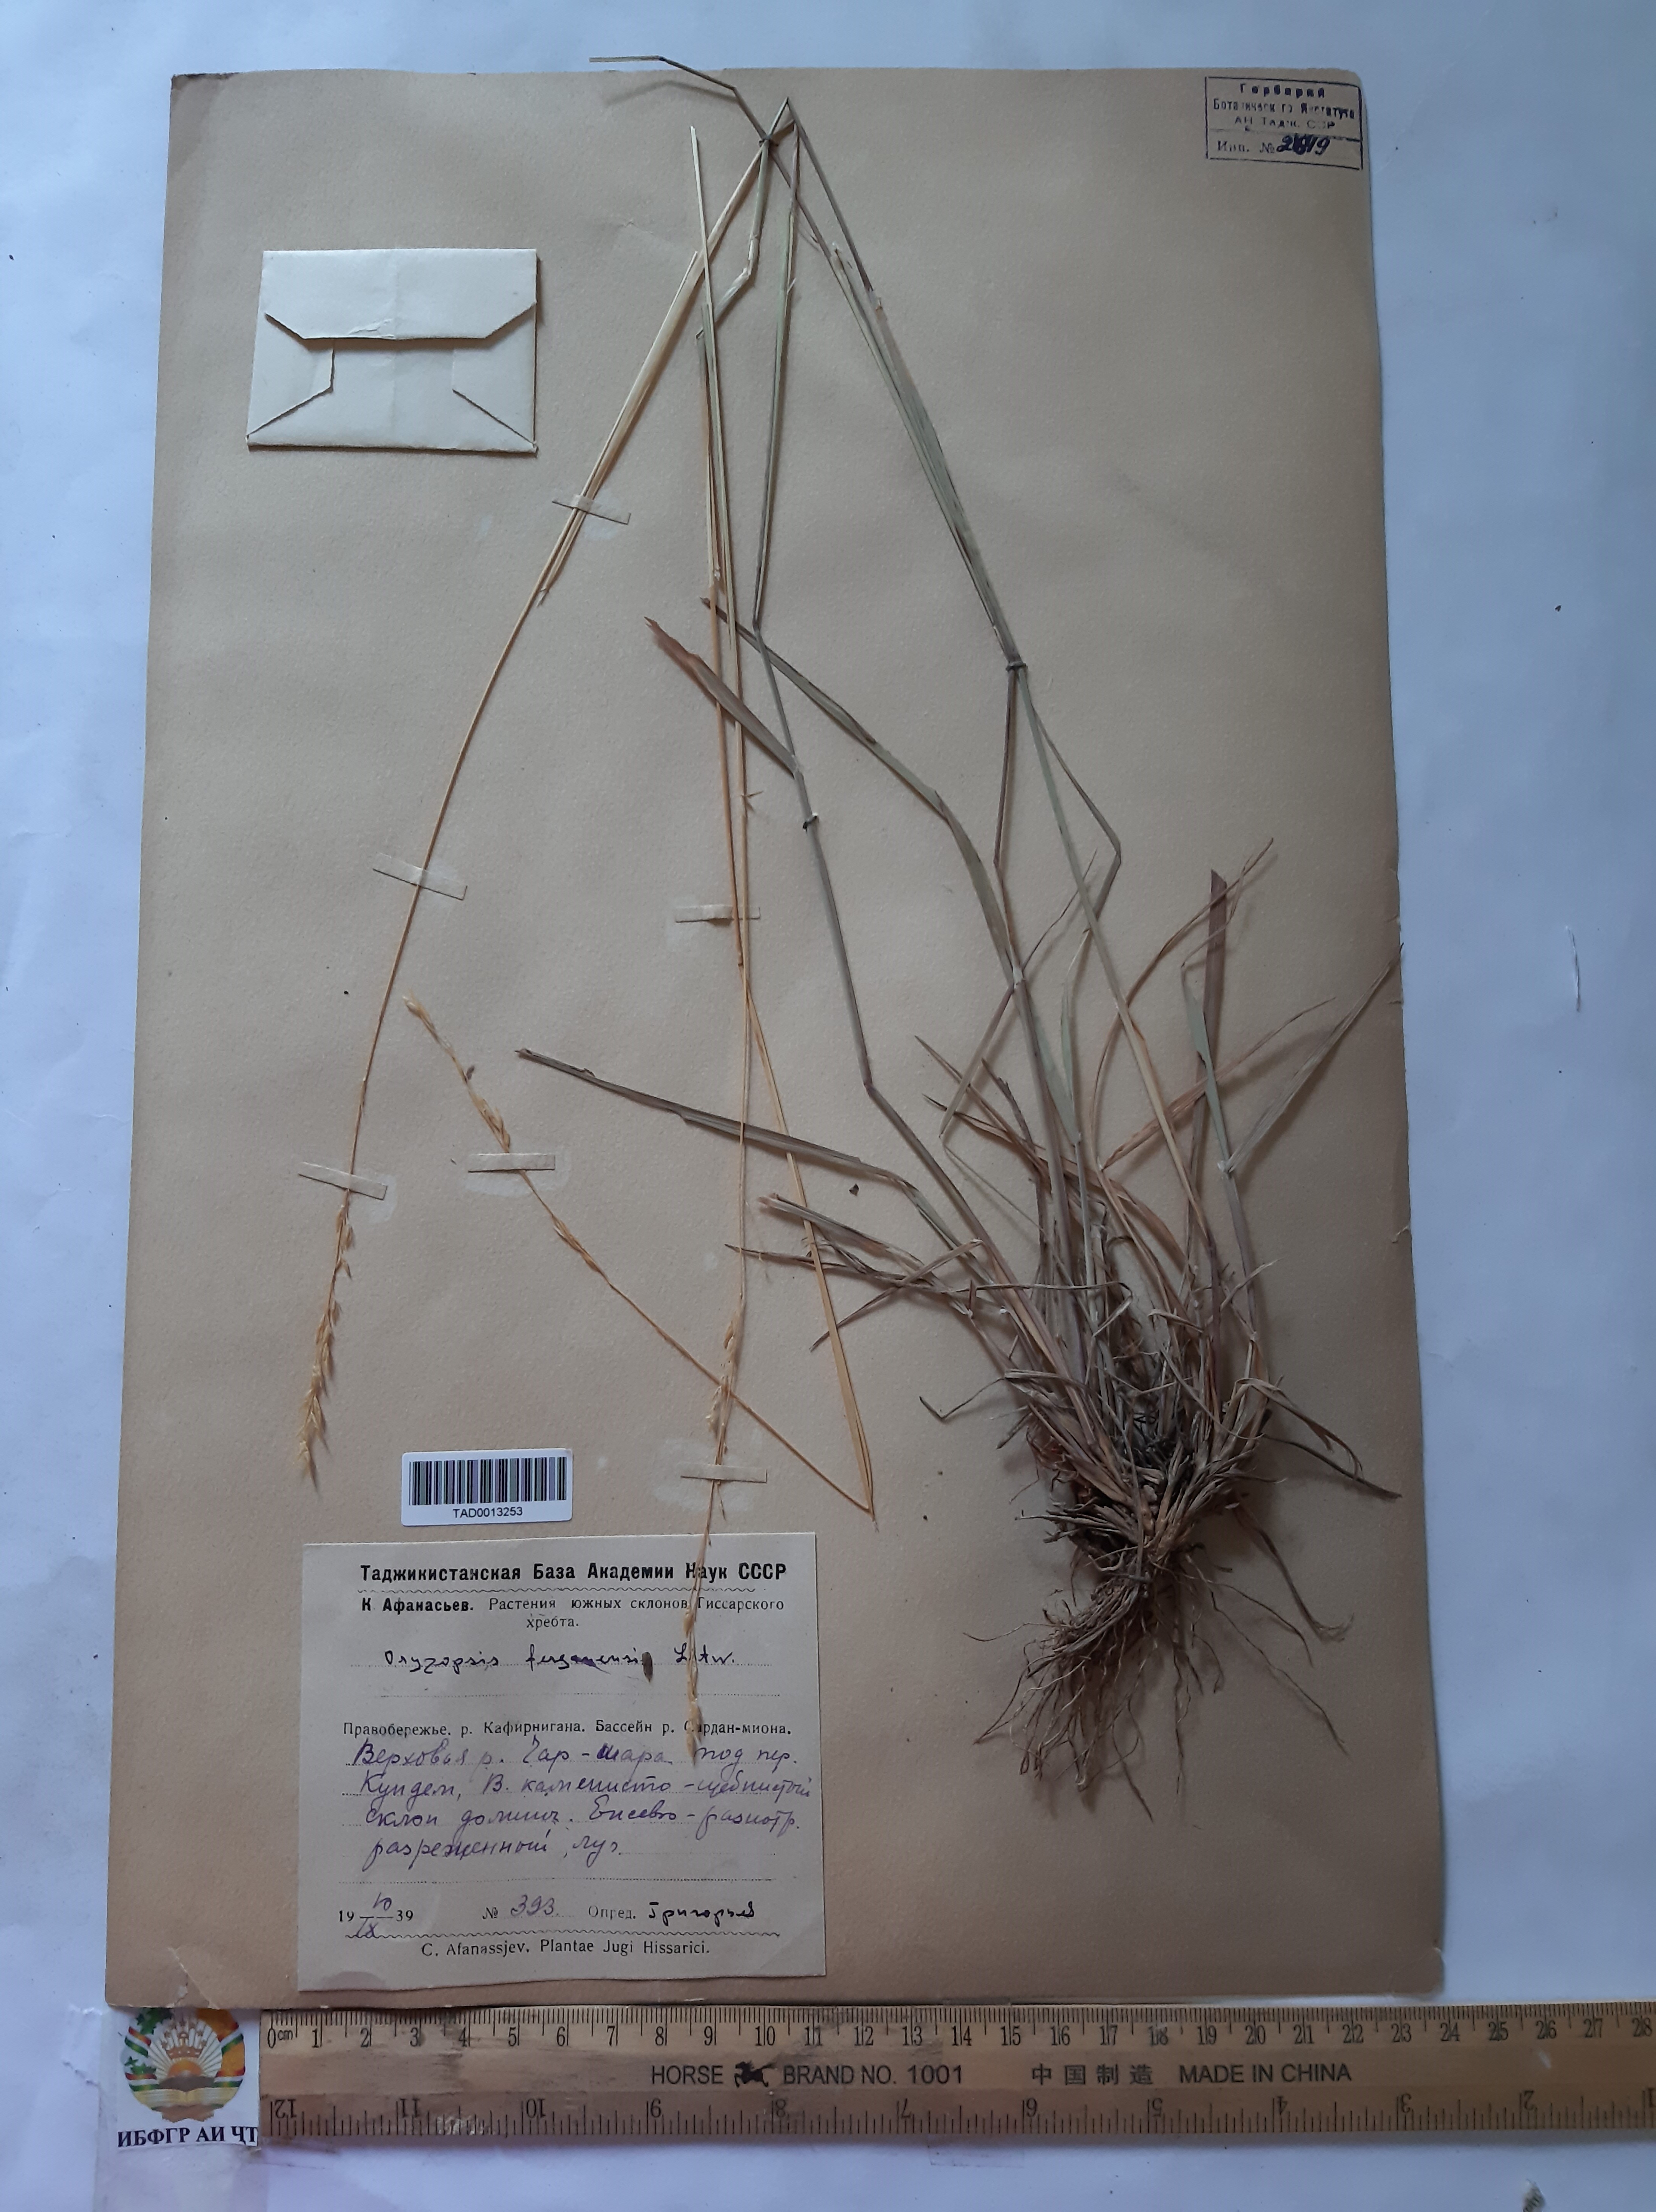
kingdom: Plantae
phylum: Tracheophyta
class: Liliopsida
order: Poales
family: Poaceae
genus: Piptatherum
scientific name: Piptatherum ferganense
